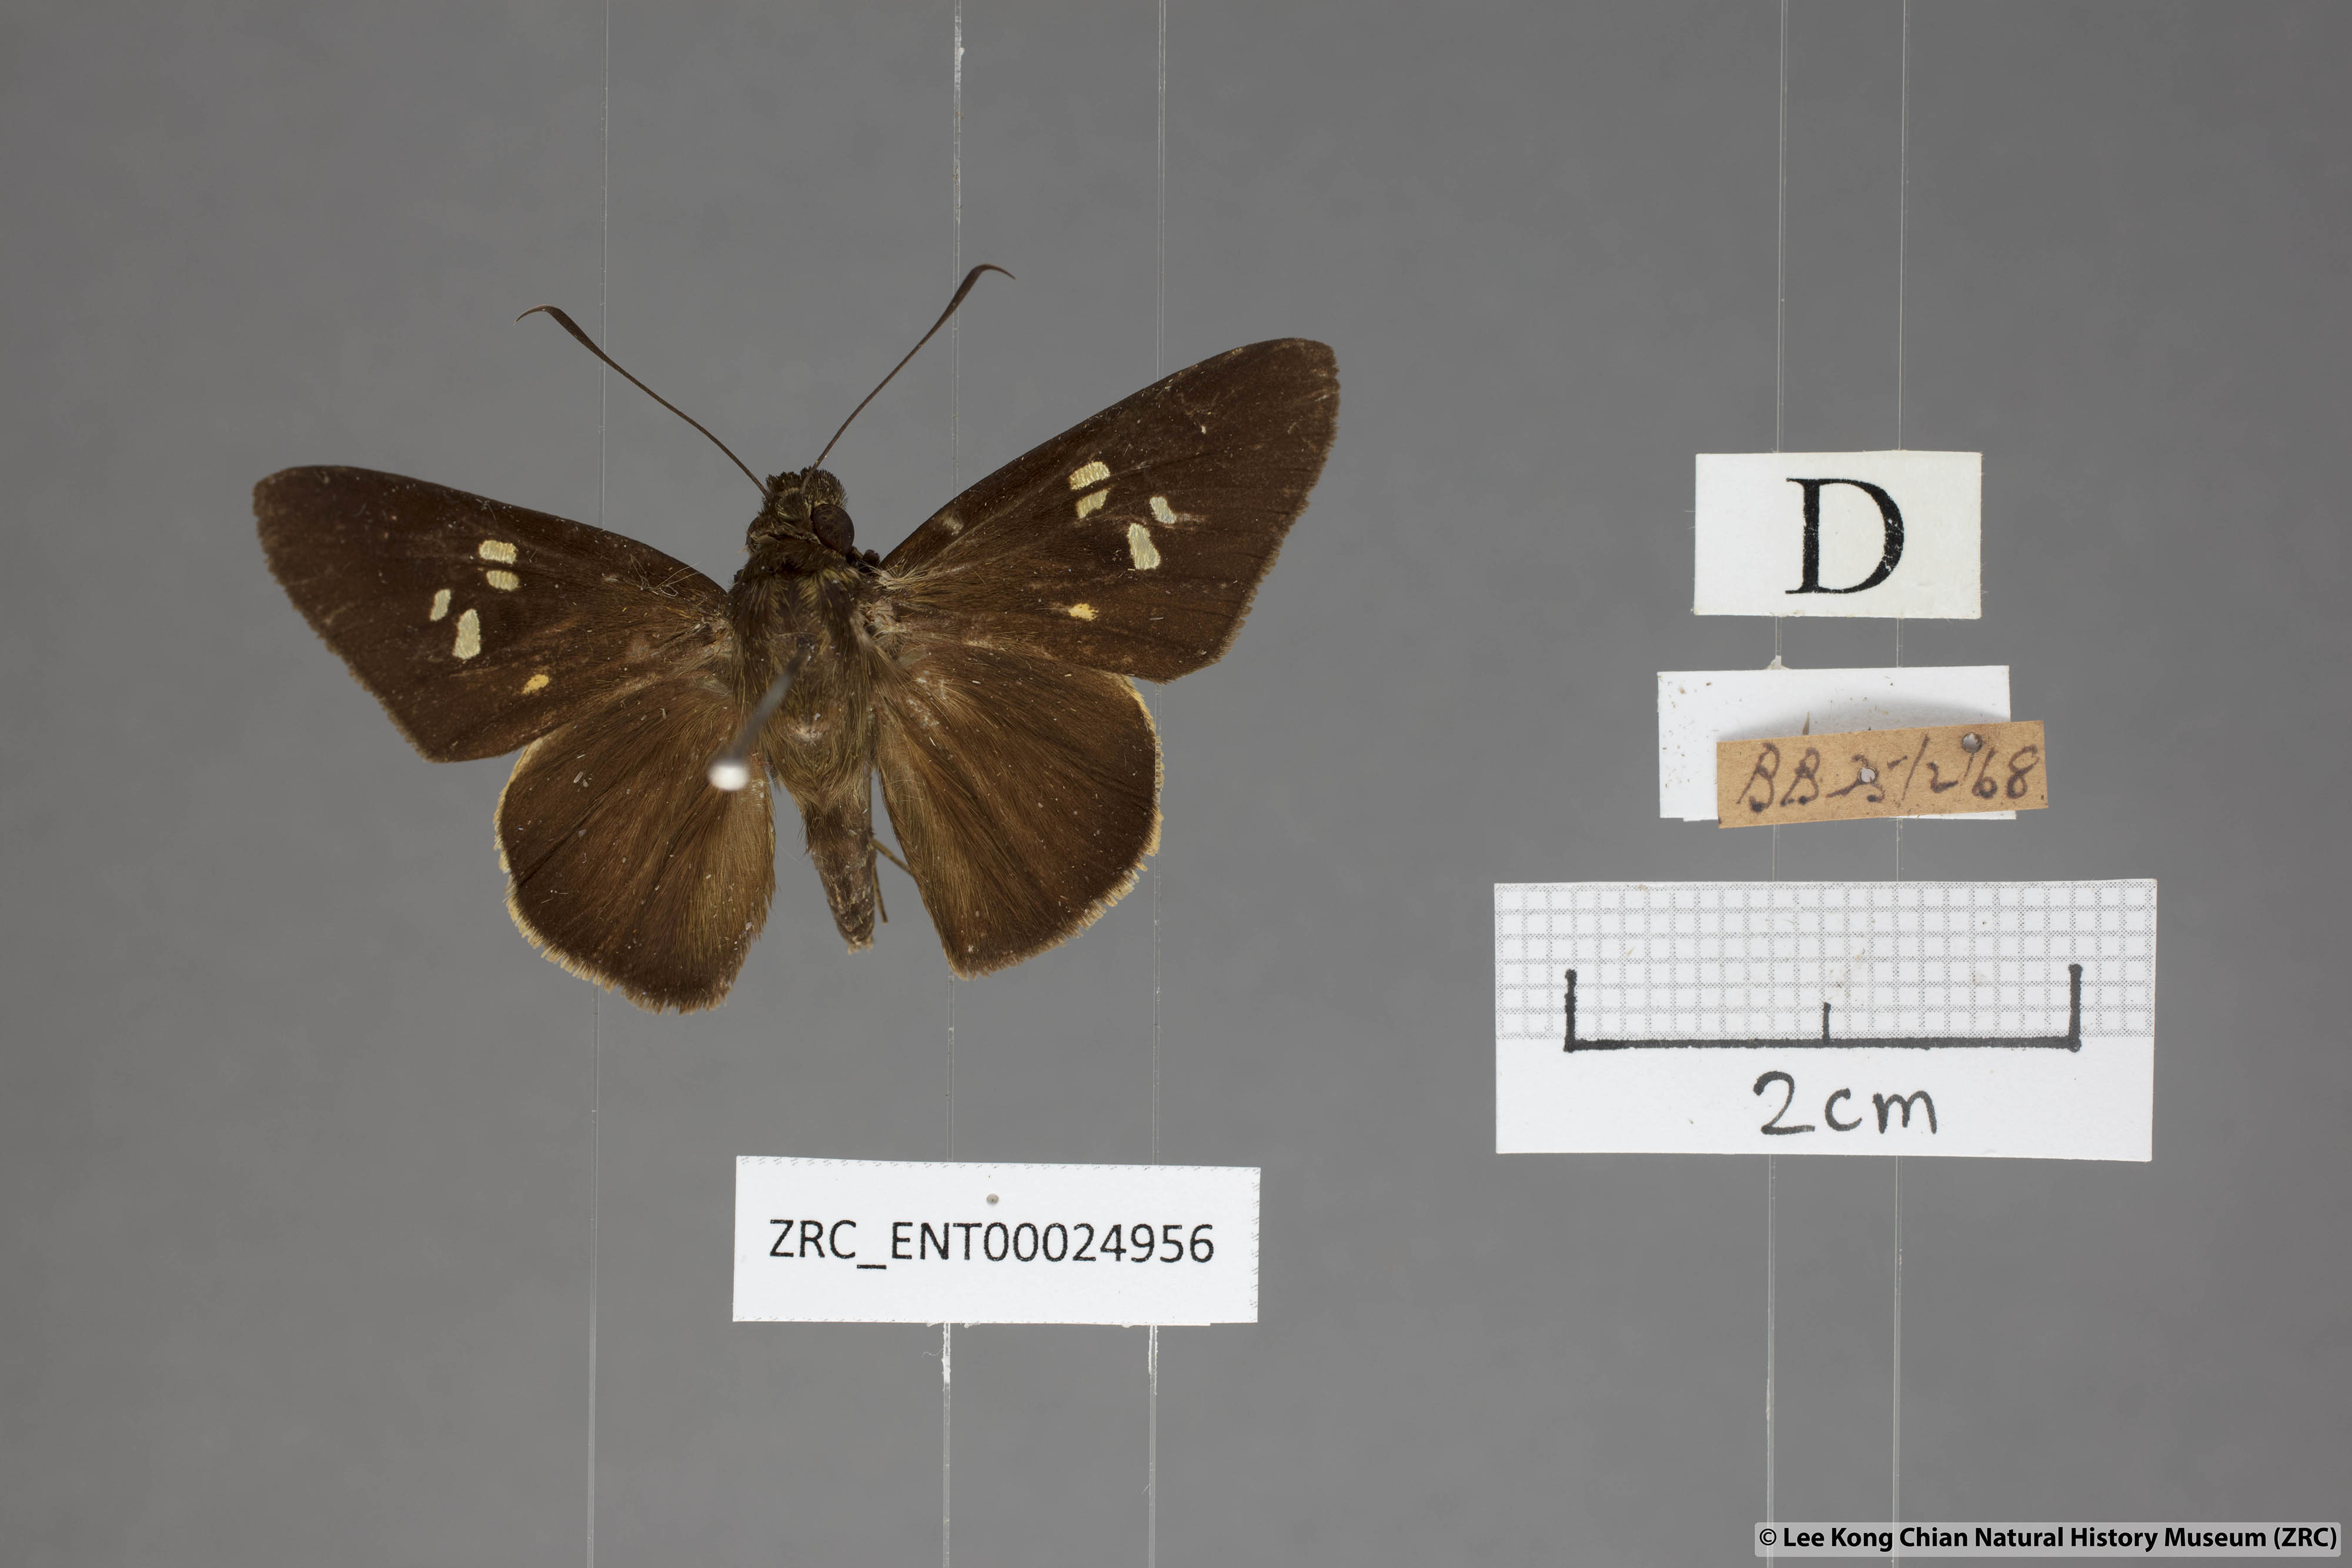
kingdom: Animalia
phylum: Arthropoda
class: Insecta
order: Lepidoptera
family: Hesperiidae
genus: Lotongus
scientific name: Lotongus calathus
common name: White-tipped palmer
